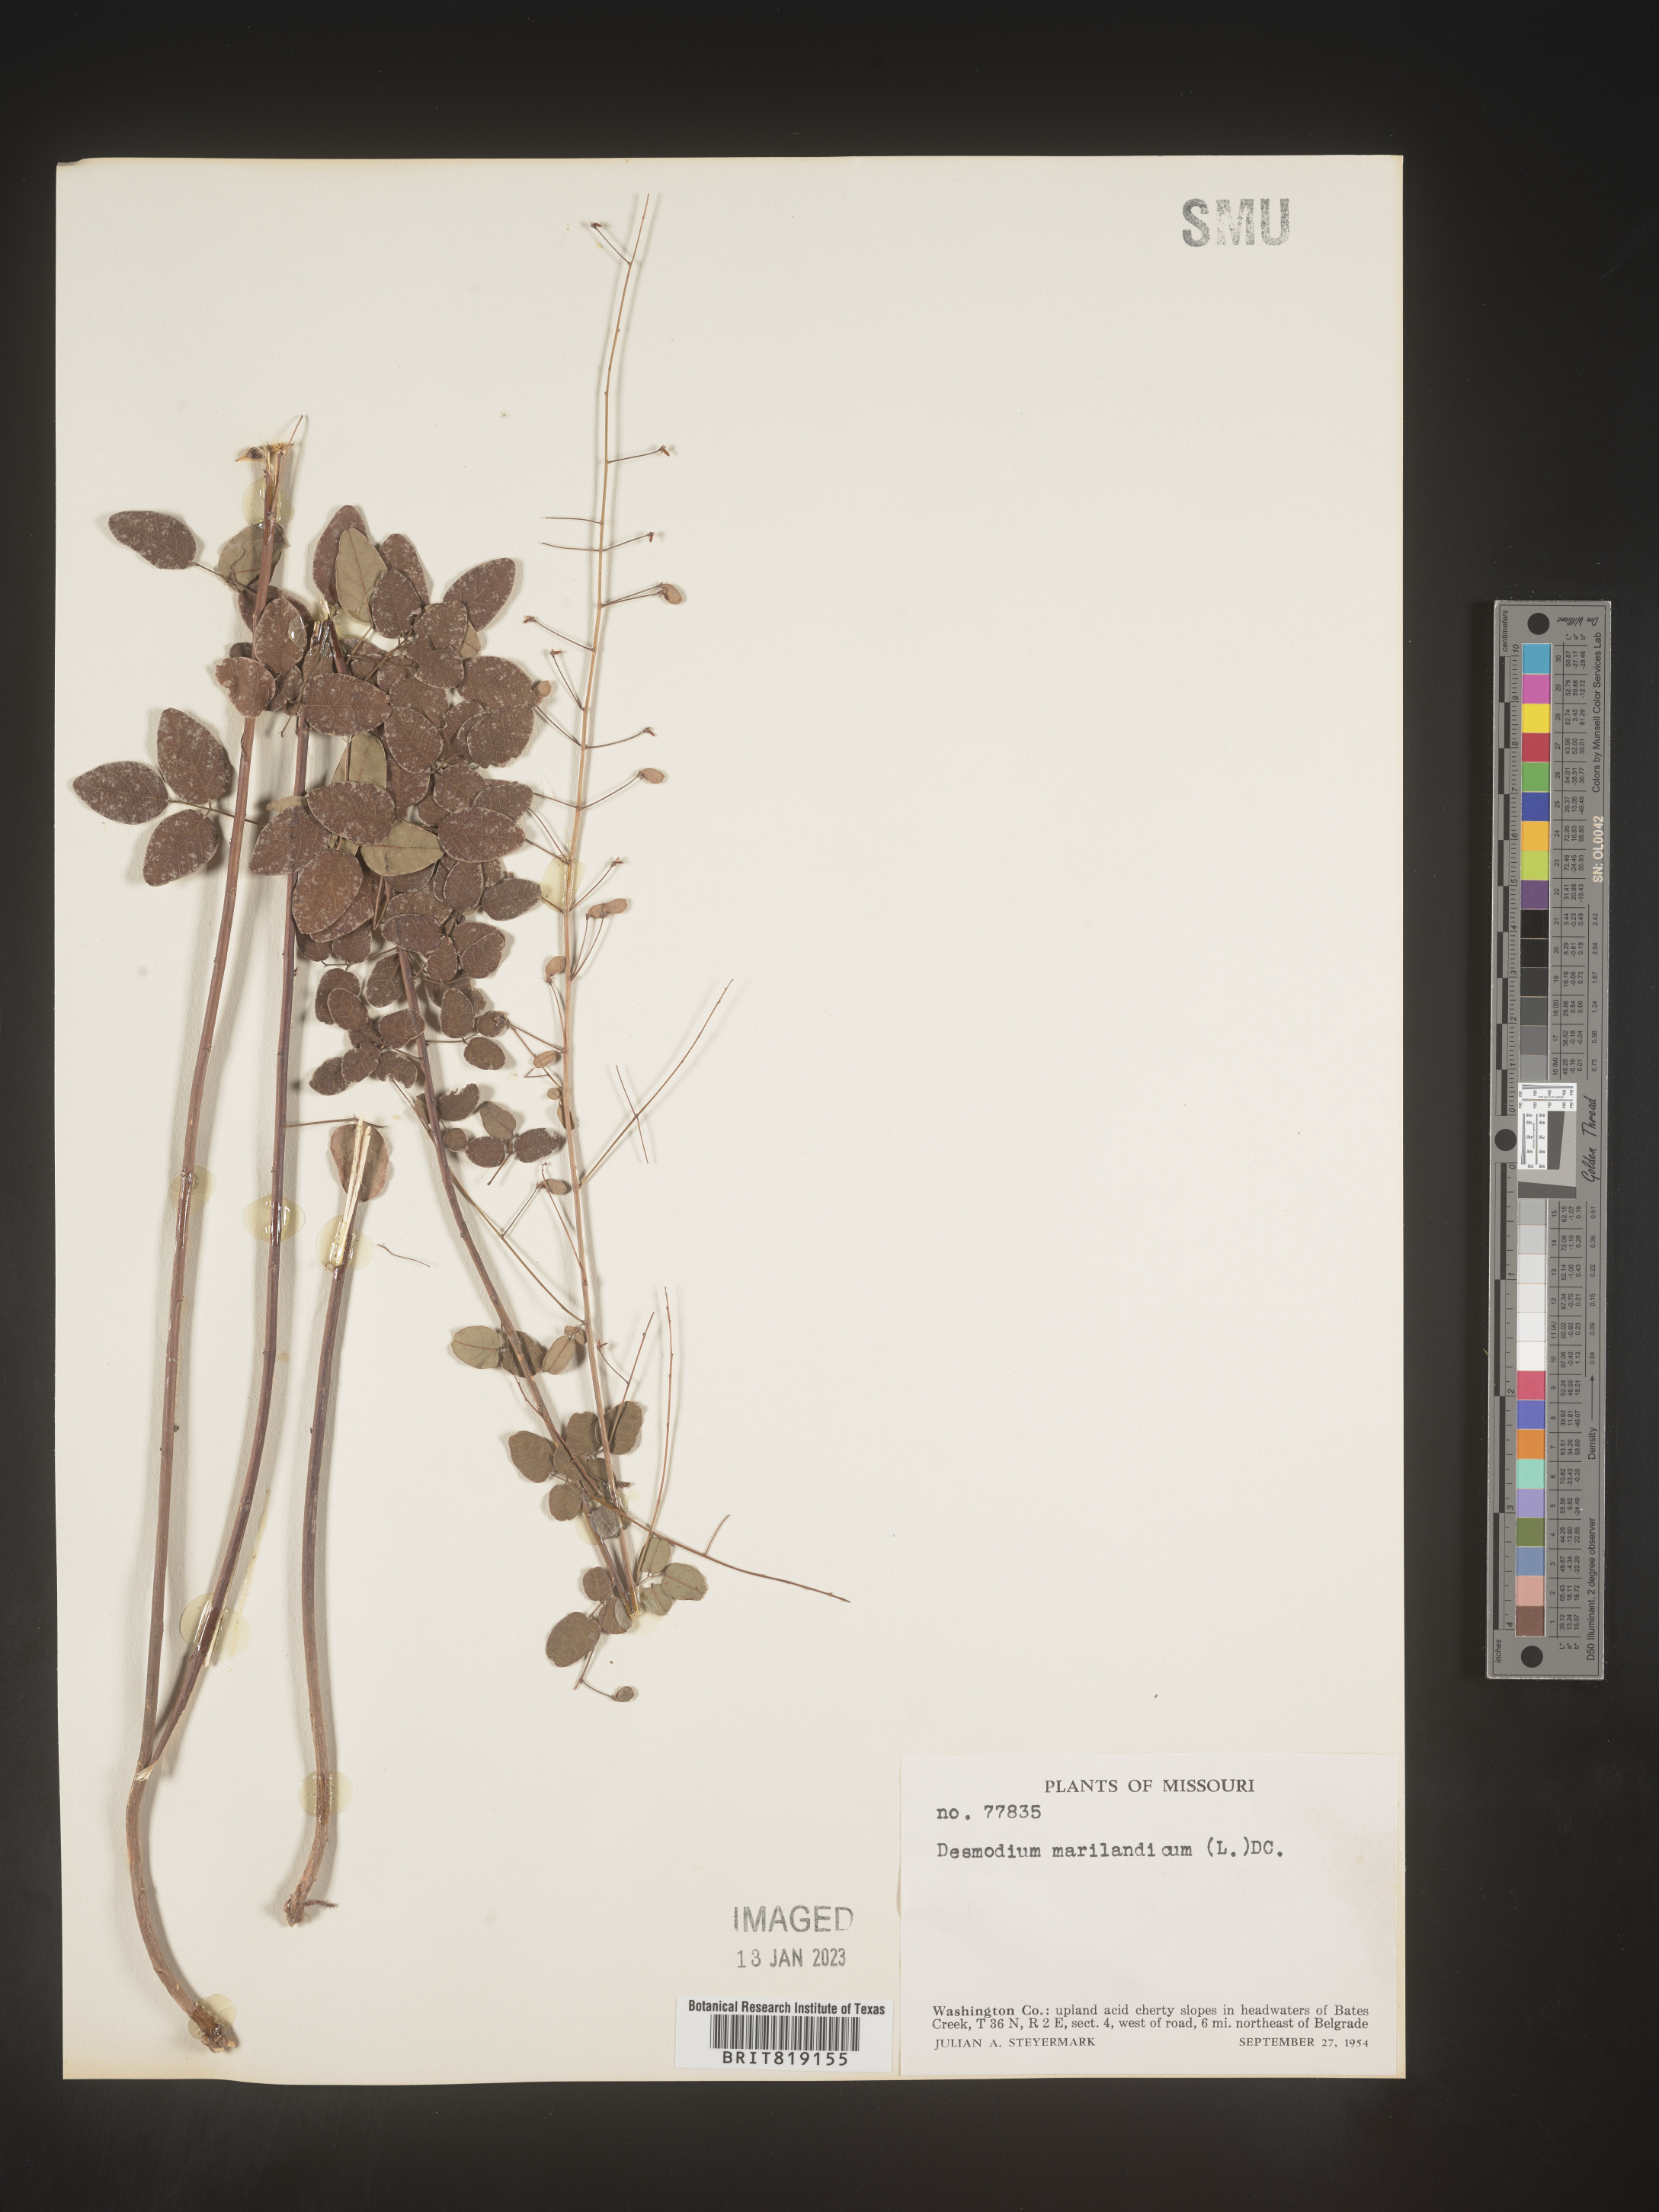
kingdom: Plantae
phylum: Tracheophyta
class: Magnoliopsida
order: Fabales
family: Fabaceae
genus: Desmodium
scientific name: Desmodium marilandicum
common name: Maryland tick-trefoil
